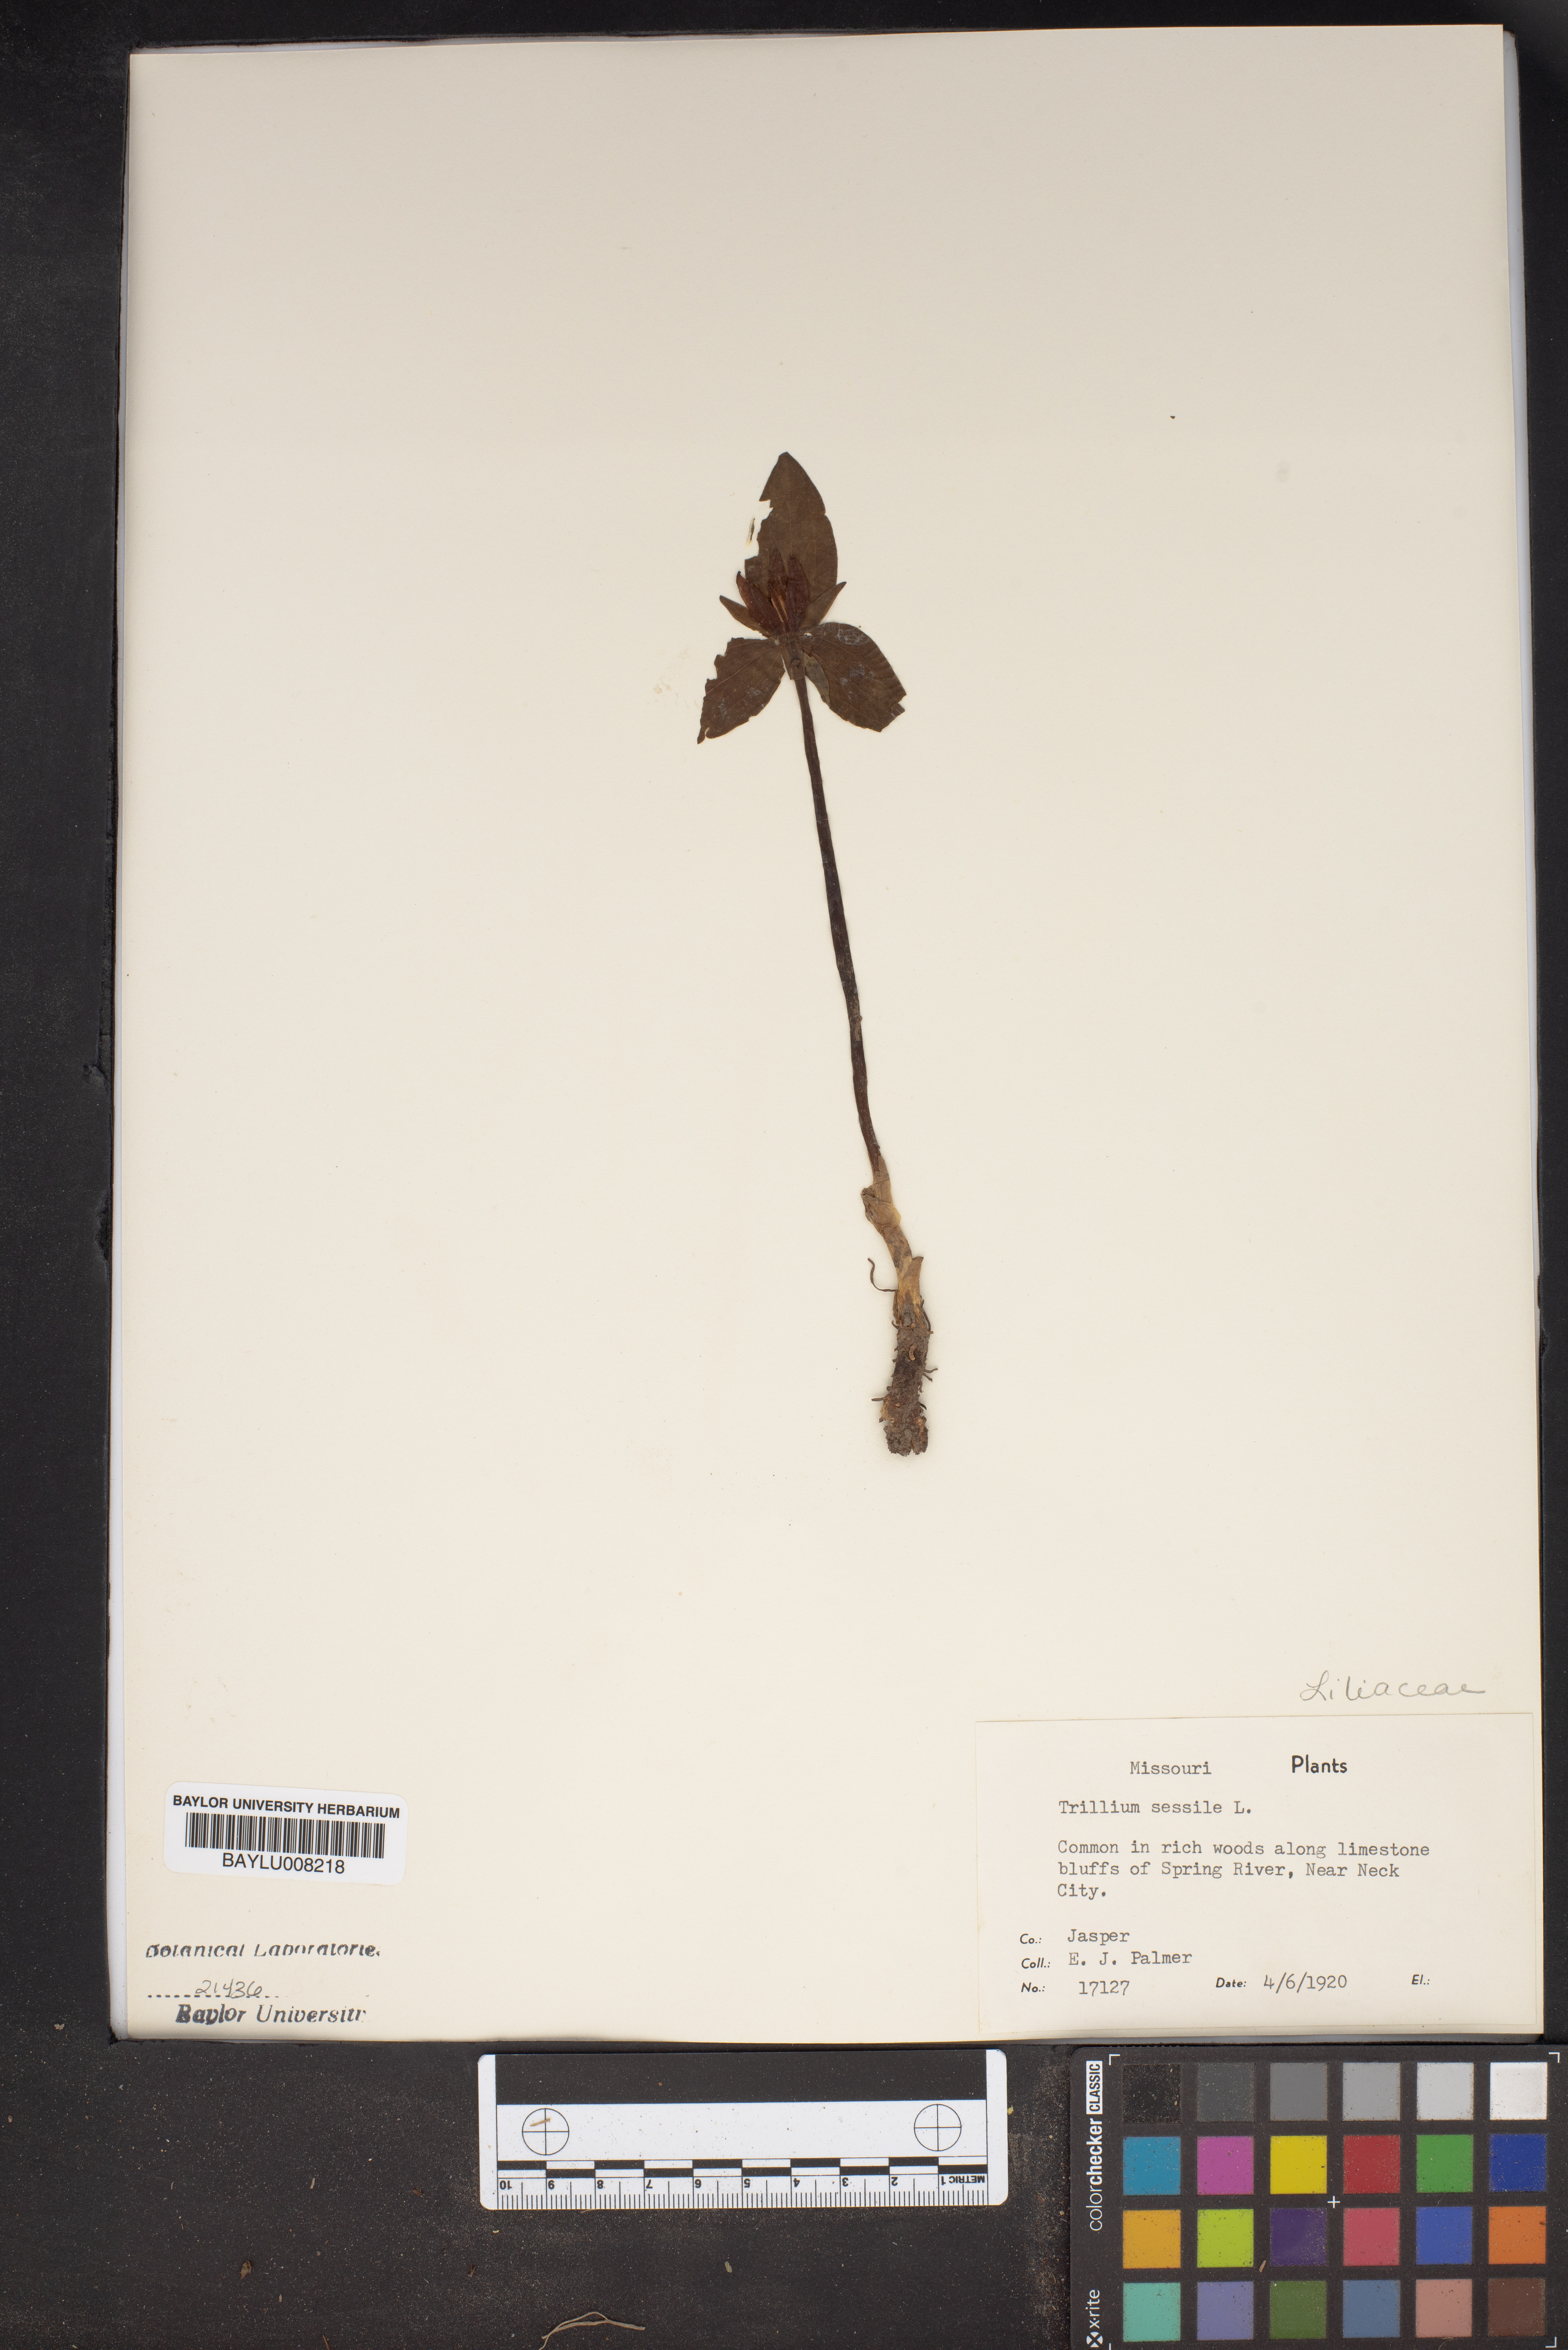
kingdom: Plantae
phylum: Tracheophyta
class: Liliopsida
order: Liliales
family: Melanthiaceae
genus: Trillium
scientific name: Trillium sessile
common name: Sessile trillium
